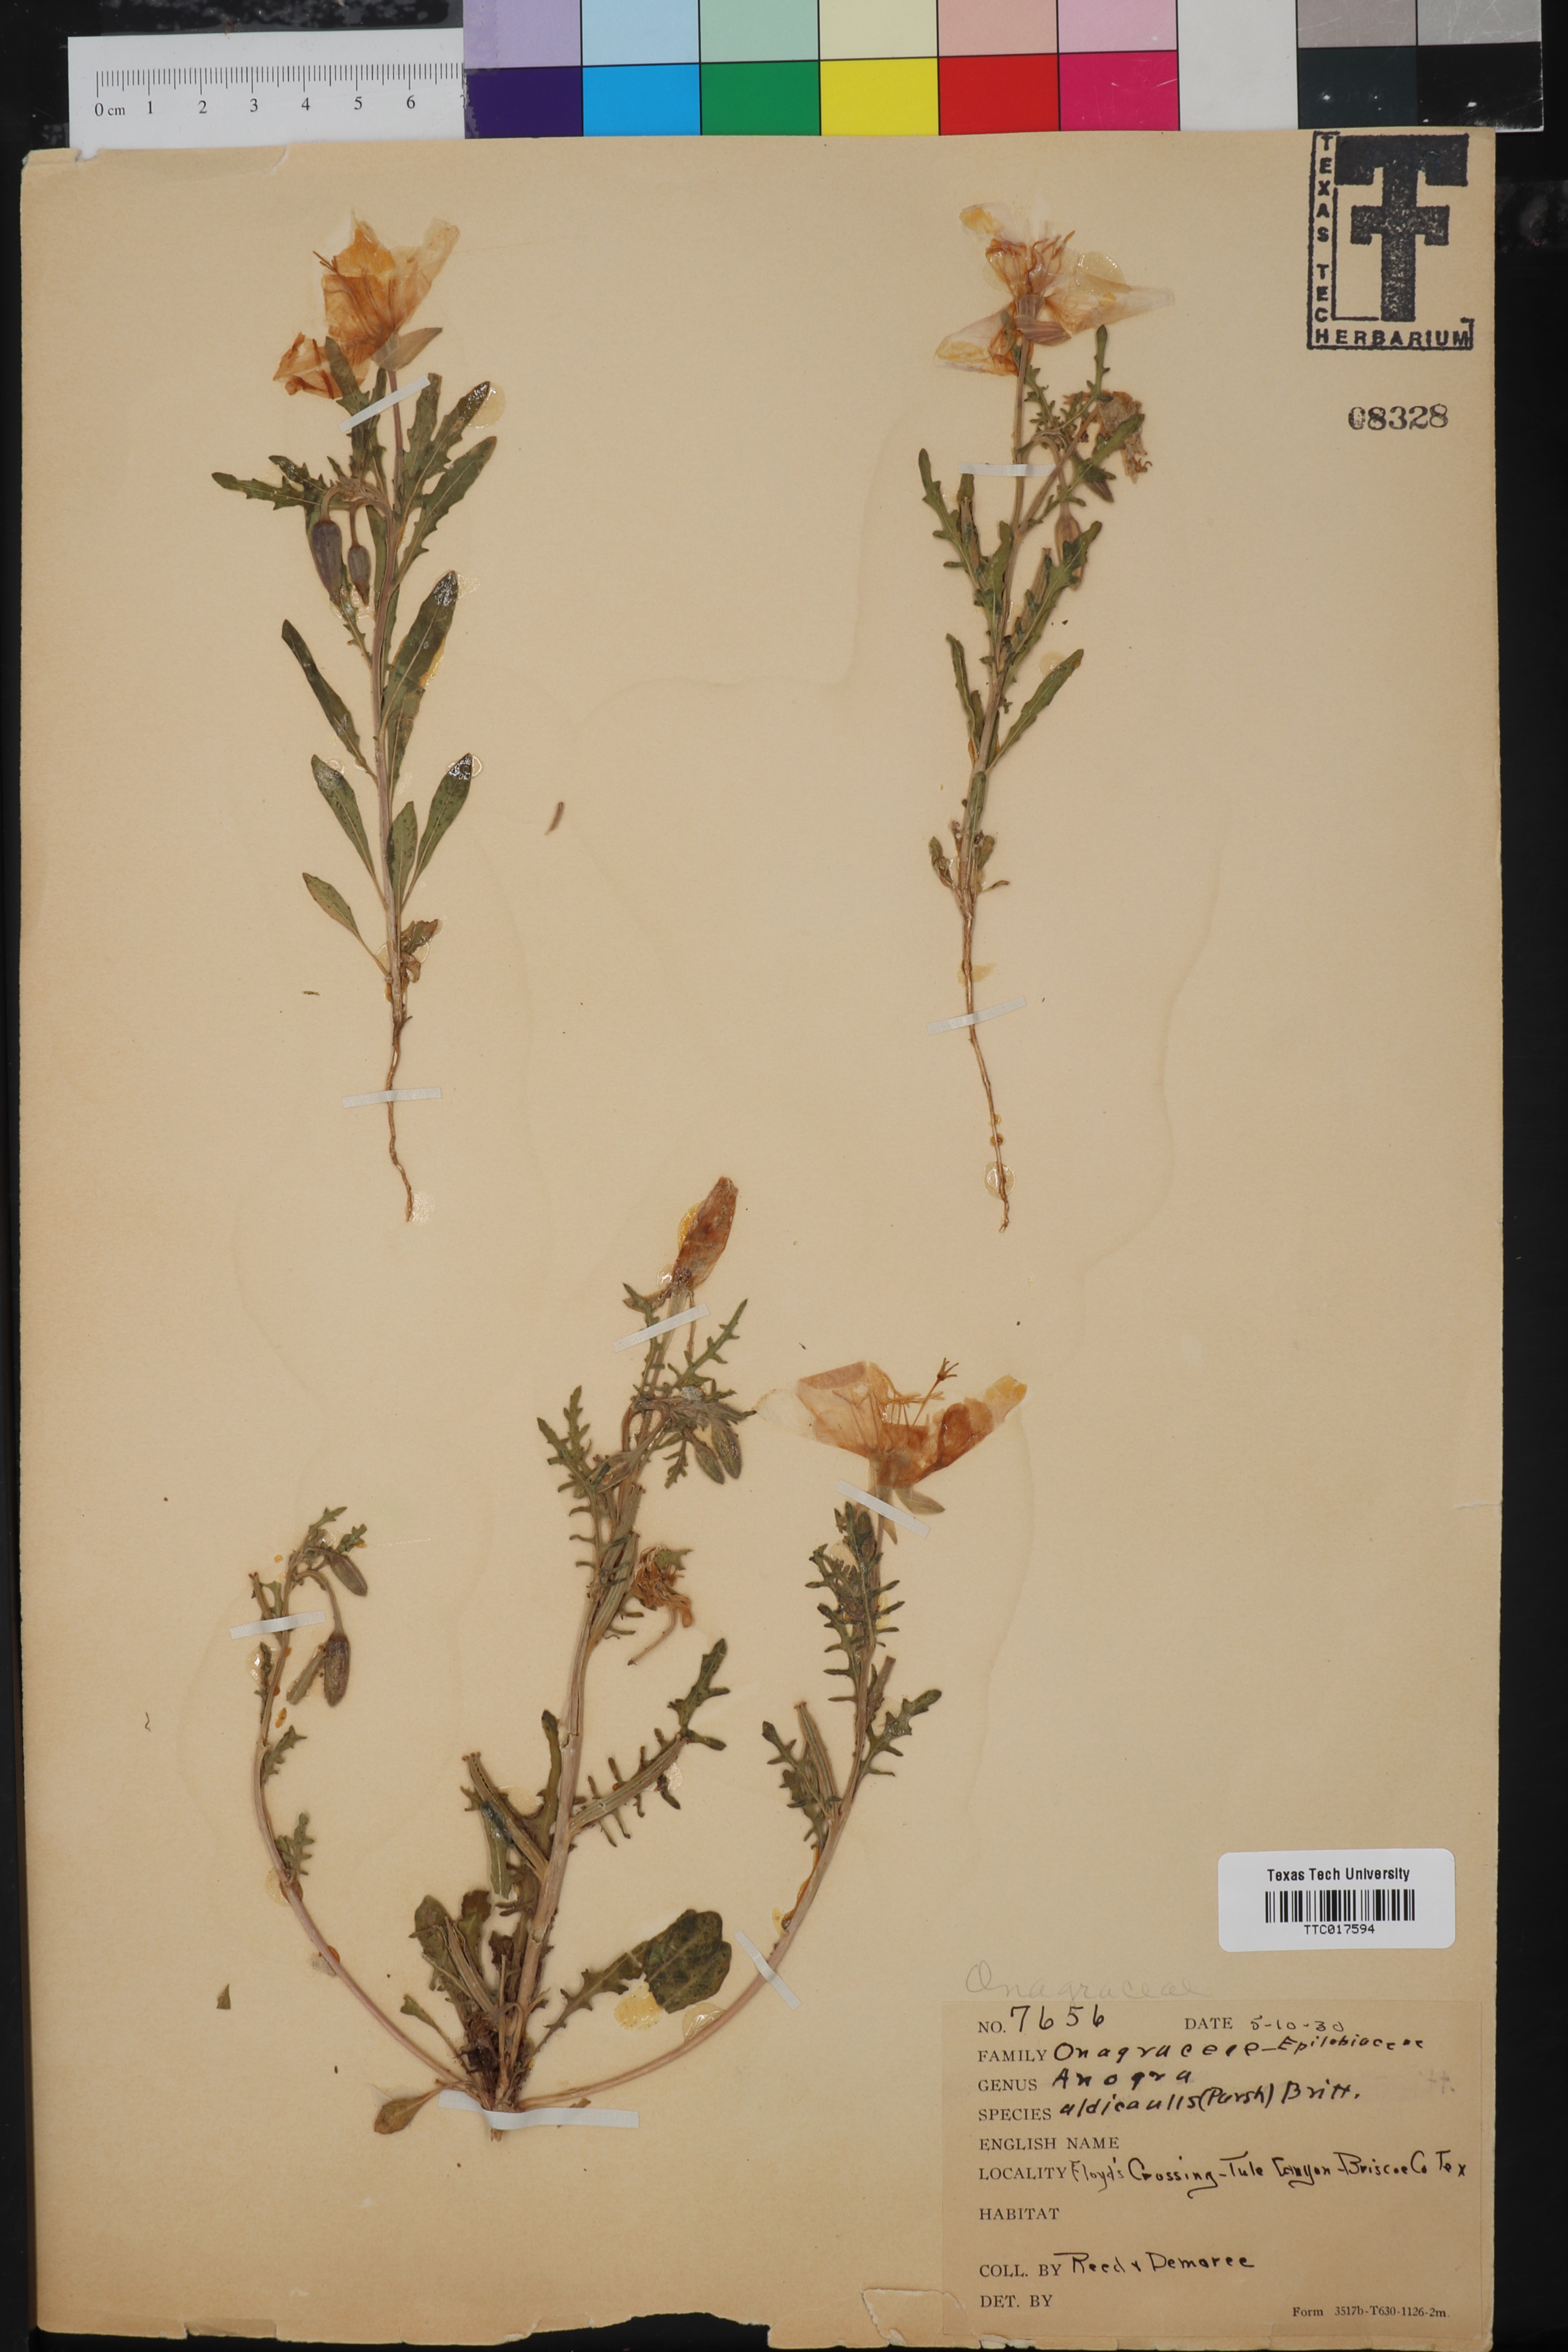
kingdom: Plantae
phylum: Tracheophyta
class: Magnoliopsida
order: Myrtales
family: Onagraceae
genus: Oenothera
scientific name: Oenothera albicaulis
